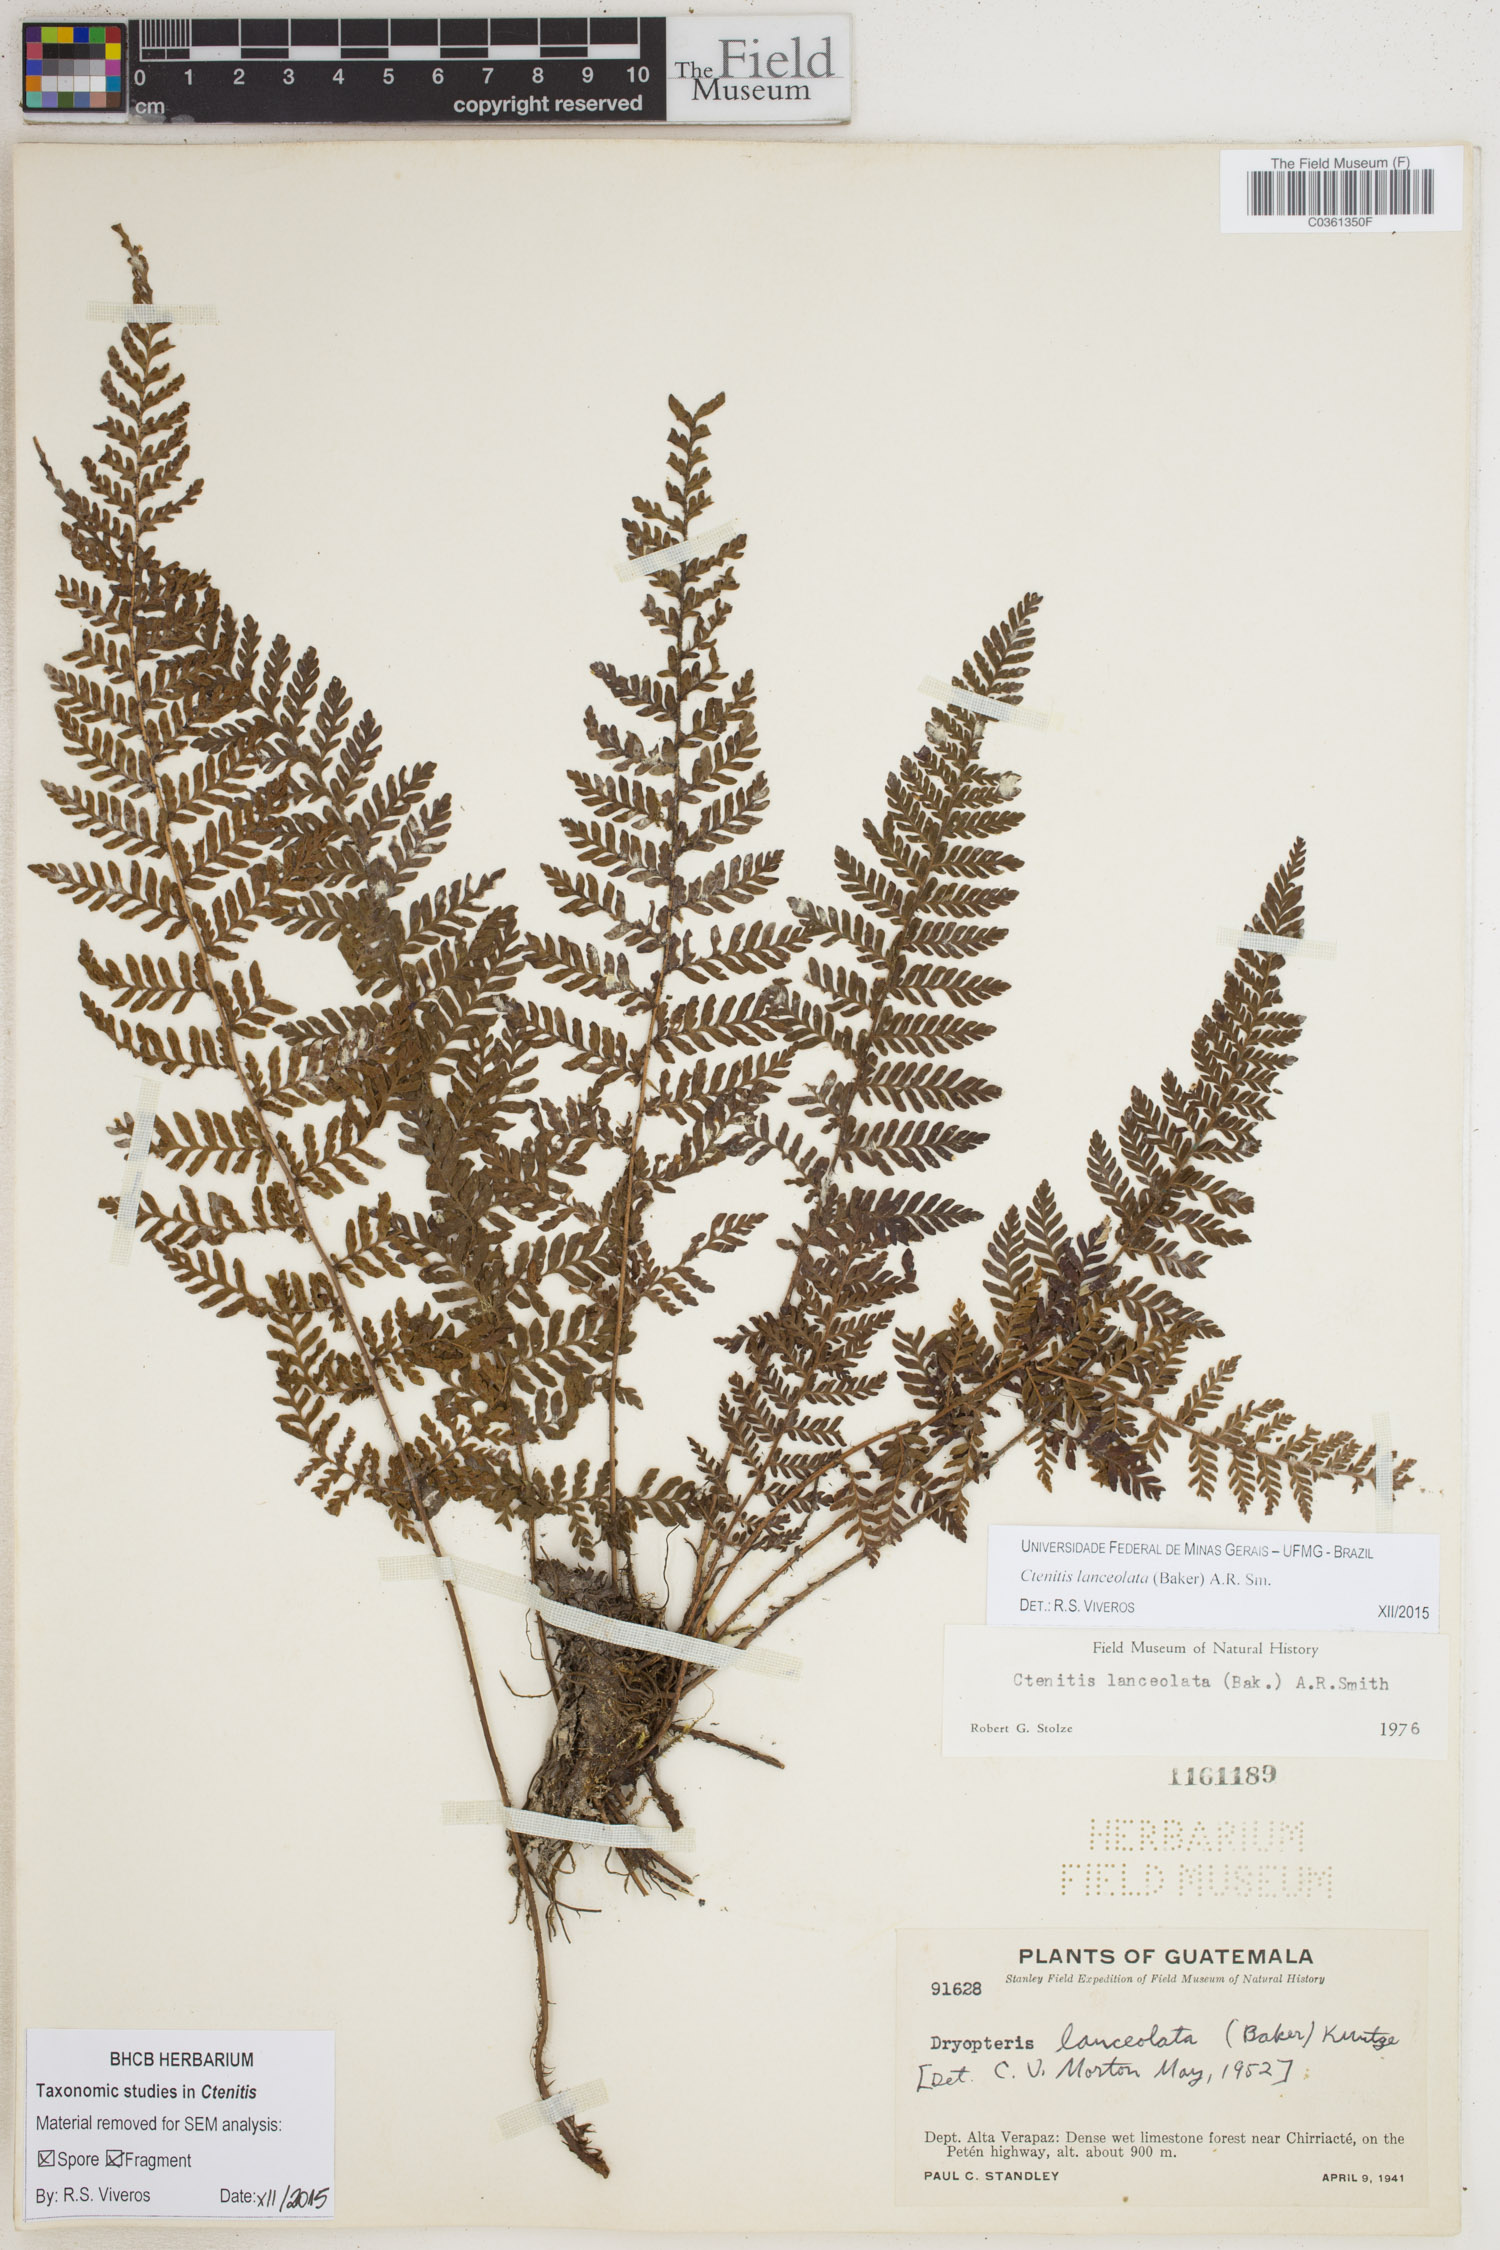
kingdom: Plantae
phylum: Tracheophyta
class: Polypodiopsida
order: Polypodiales
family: Dryopteridaceae
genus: Ctenitis
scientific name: Ctenitis lanceolata
